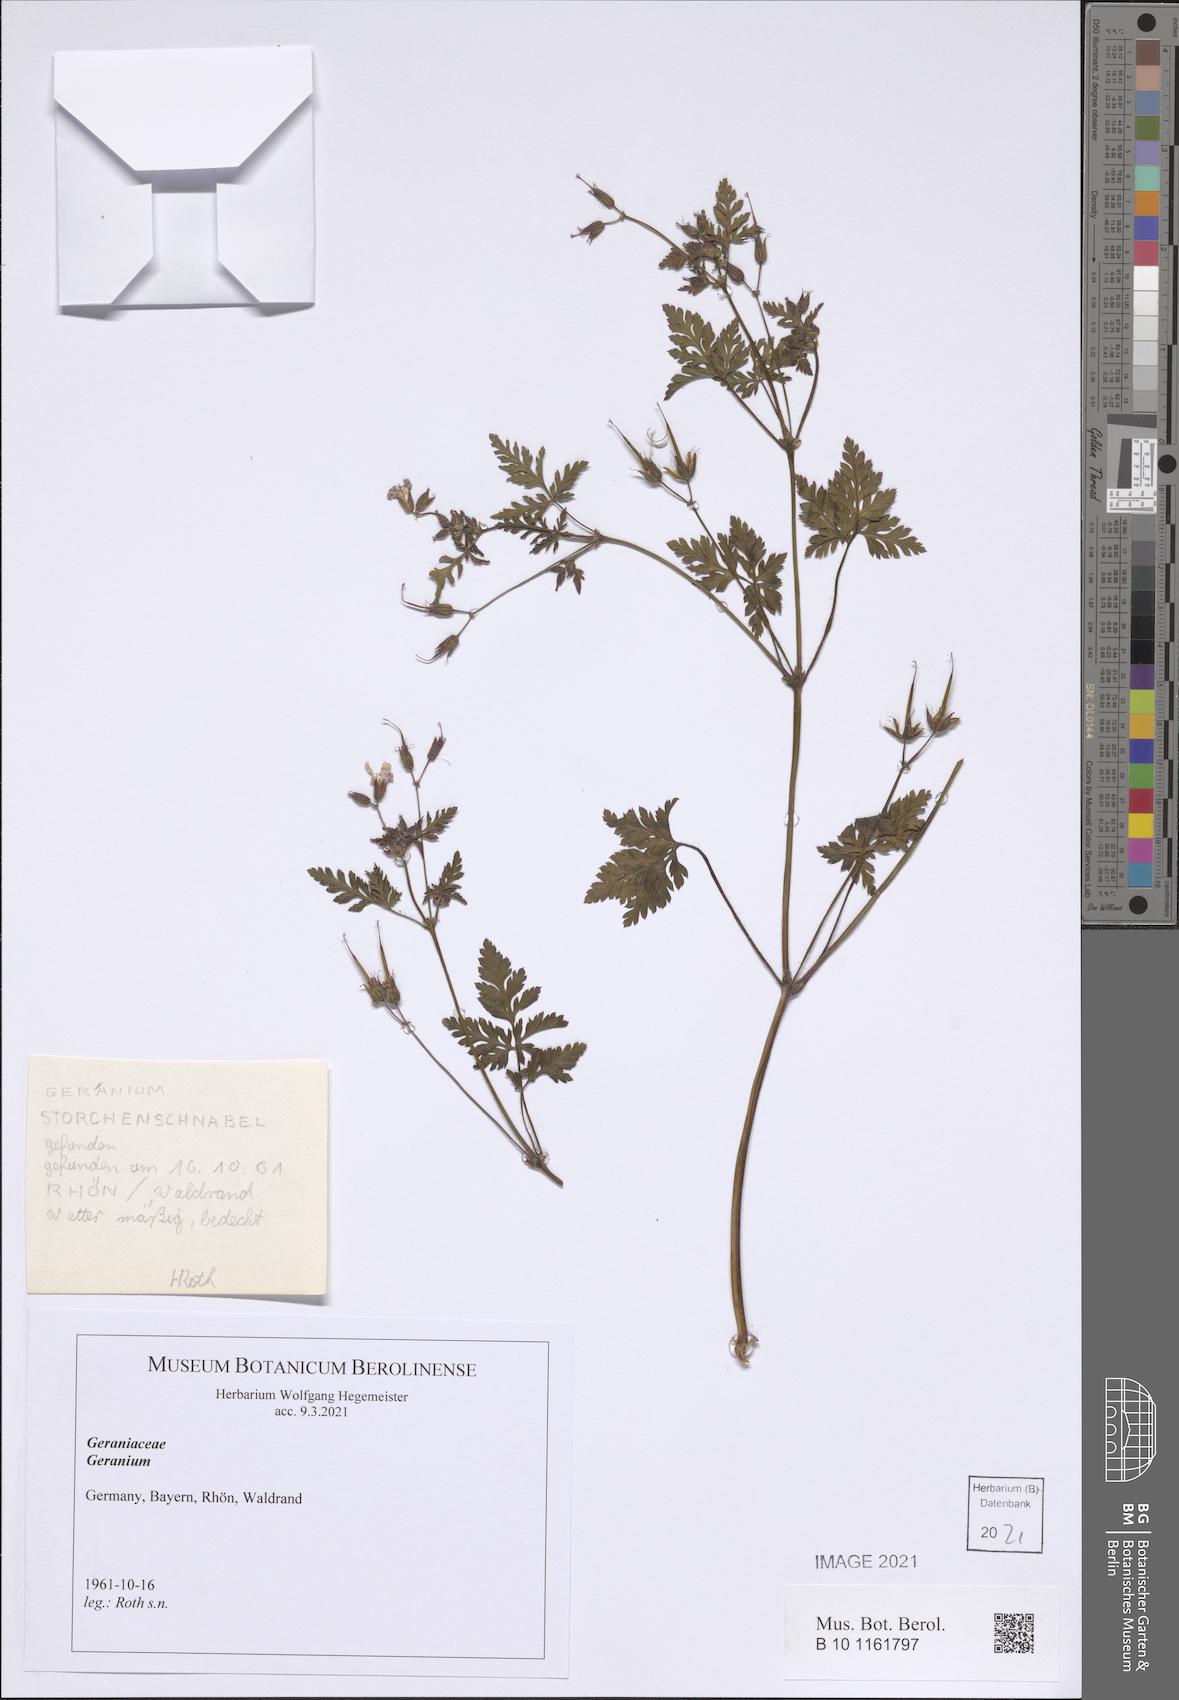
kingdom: Plantae
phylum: Tracheophyta
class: Magnoliopsida
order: Geraniales
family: Geraniaceae
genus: Geranium
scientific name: Geranium
